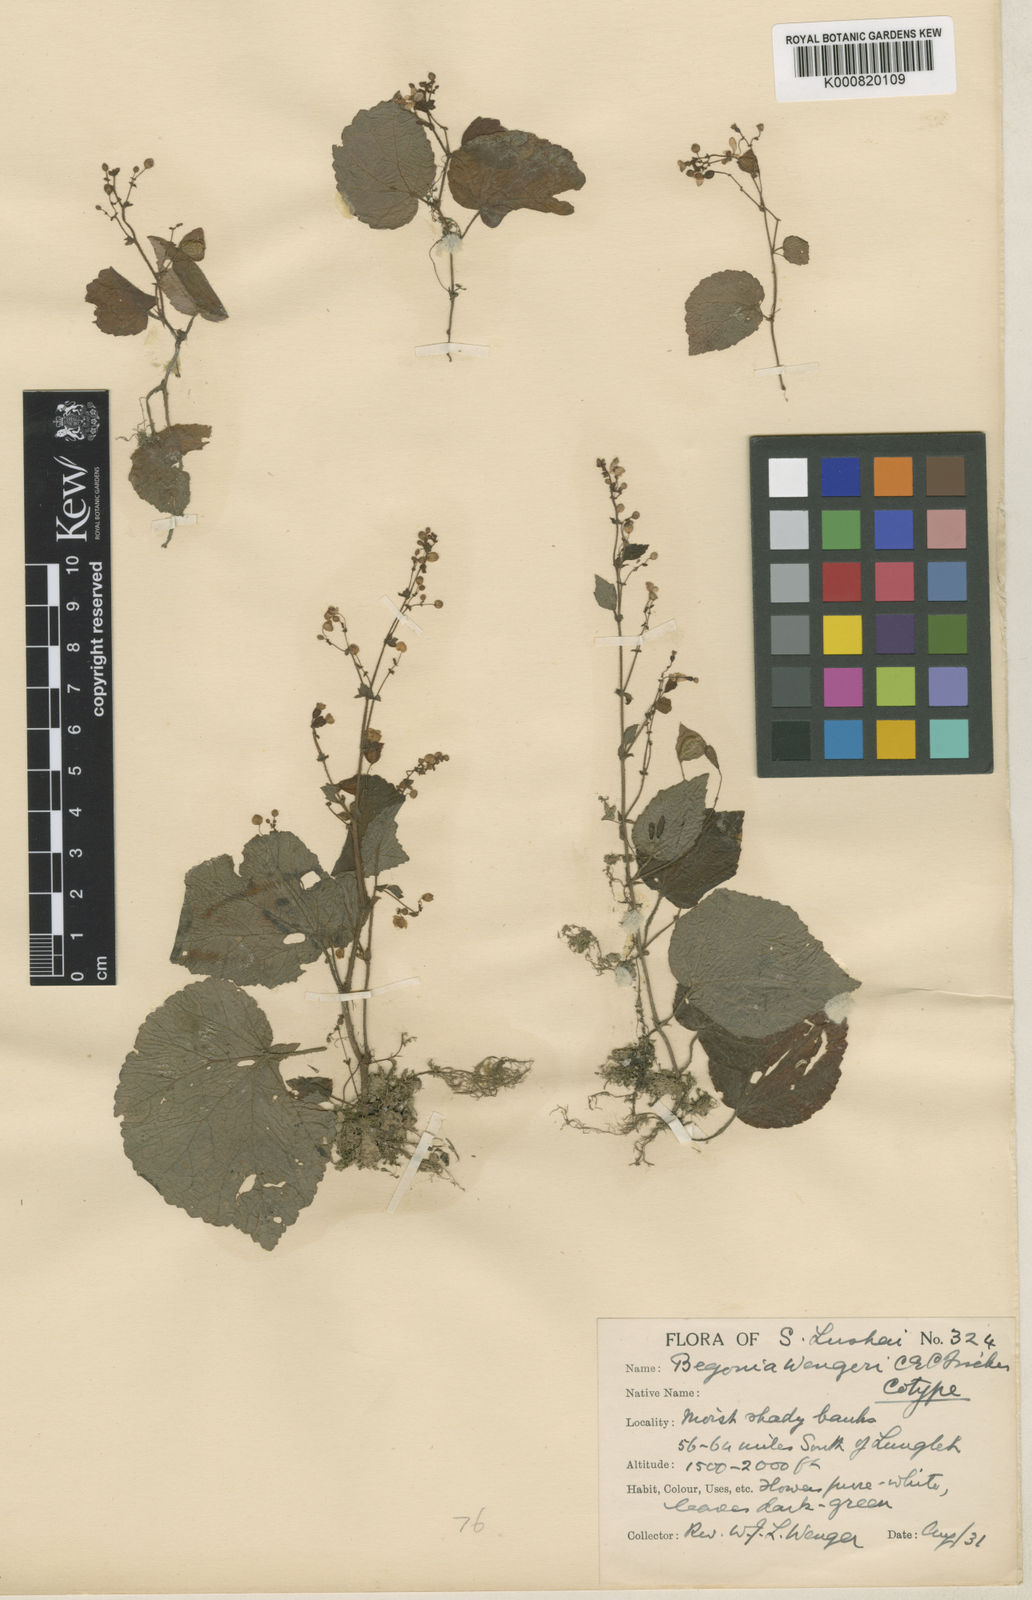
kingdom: Plantae
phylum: Tracheophyta
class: Magnoliopsida
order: Cucurbitales
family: Begoniaceae
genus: Begonia
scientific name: Begonia wengeri
